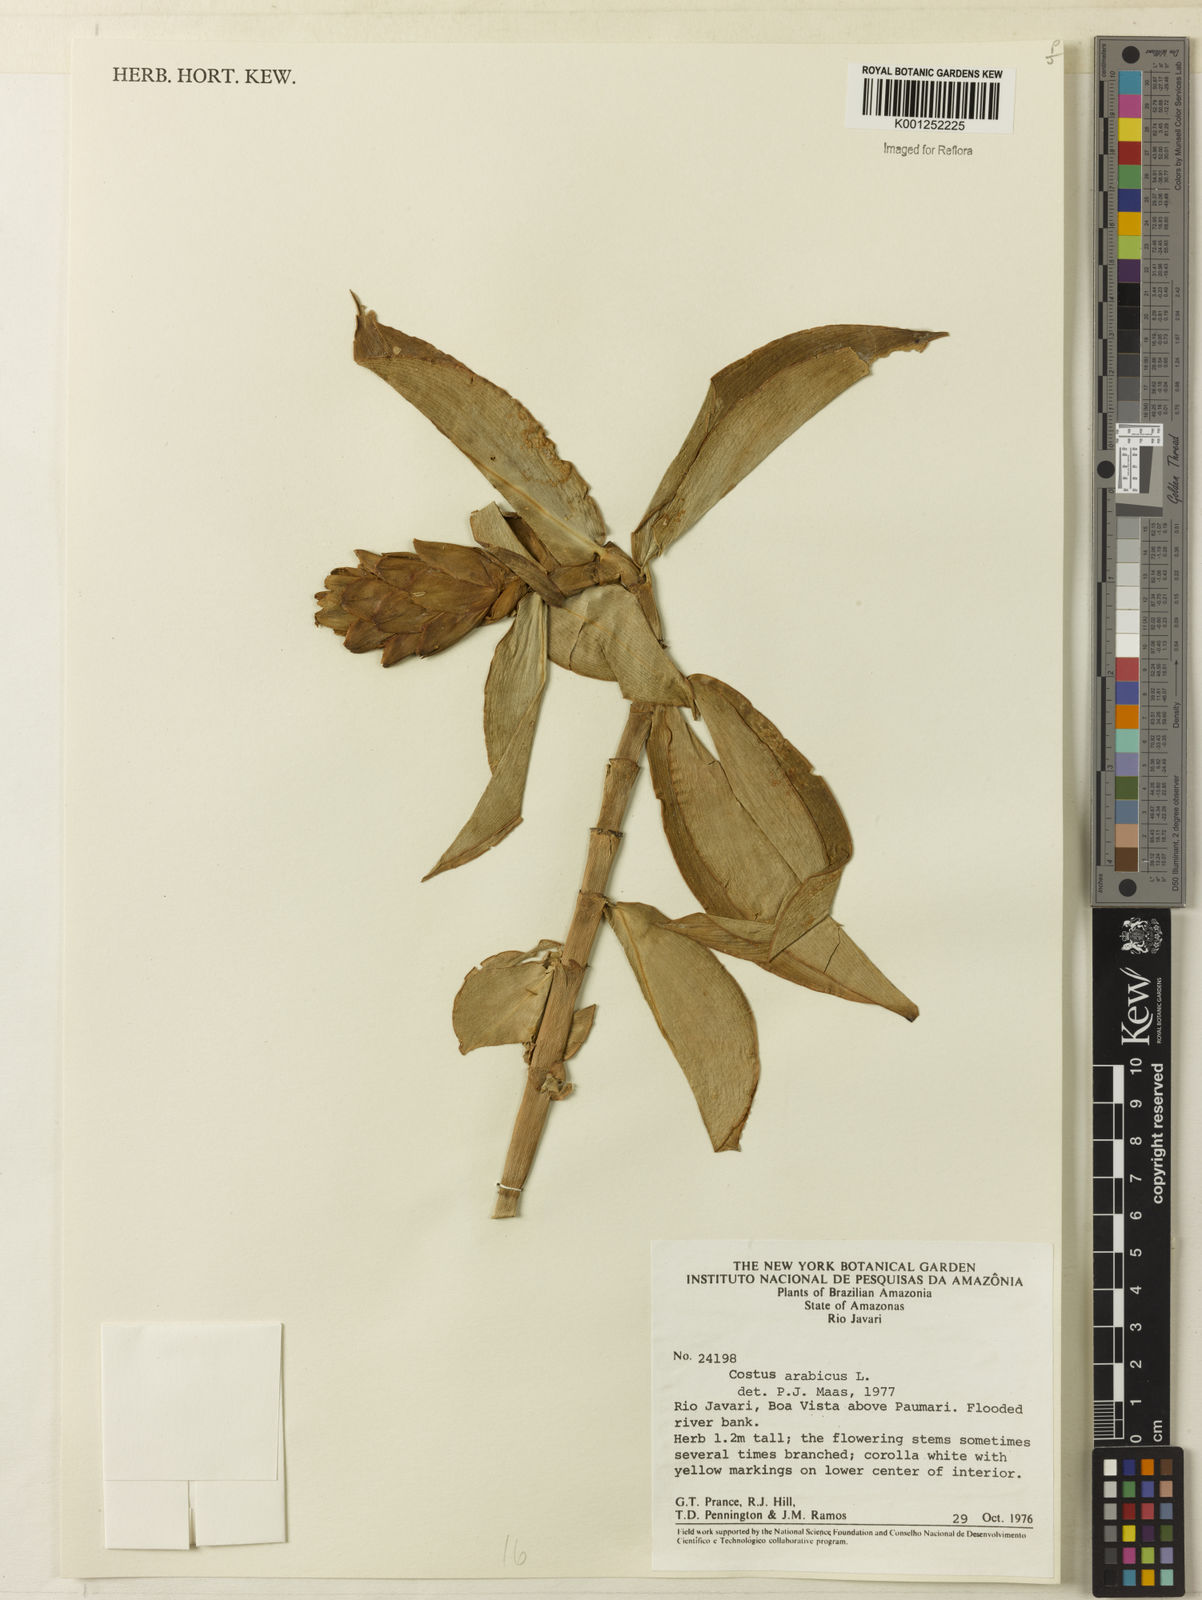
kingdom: Plantae
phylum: Tracheophyta
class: Liliopsida
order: Zingiberales
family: Costaceae
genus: Costus
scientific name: Costus arabicus
